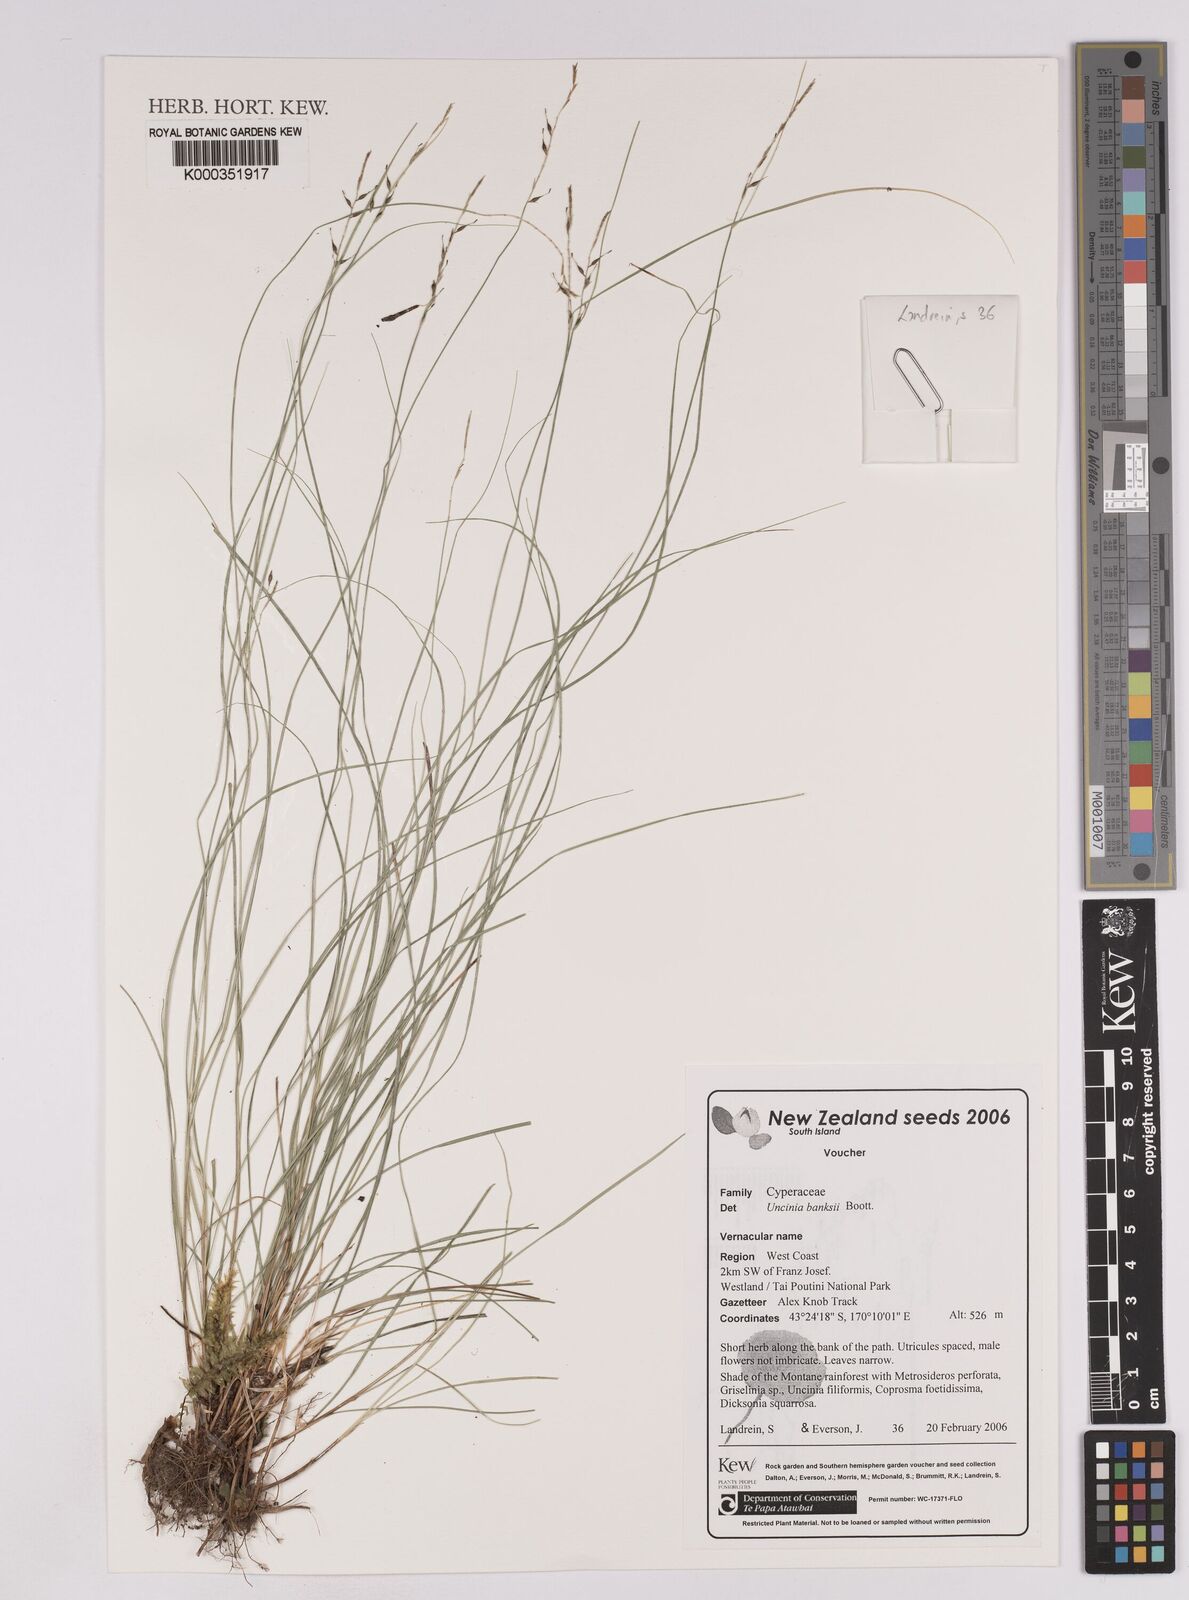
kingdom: Plantae
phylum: Tracheophyta
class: Liliopsida
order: Poales
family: Cyperaceae
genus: Carex
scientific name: Carex banksiana
